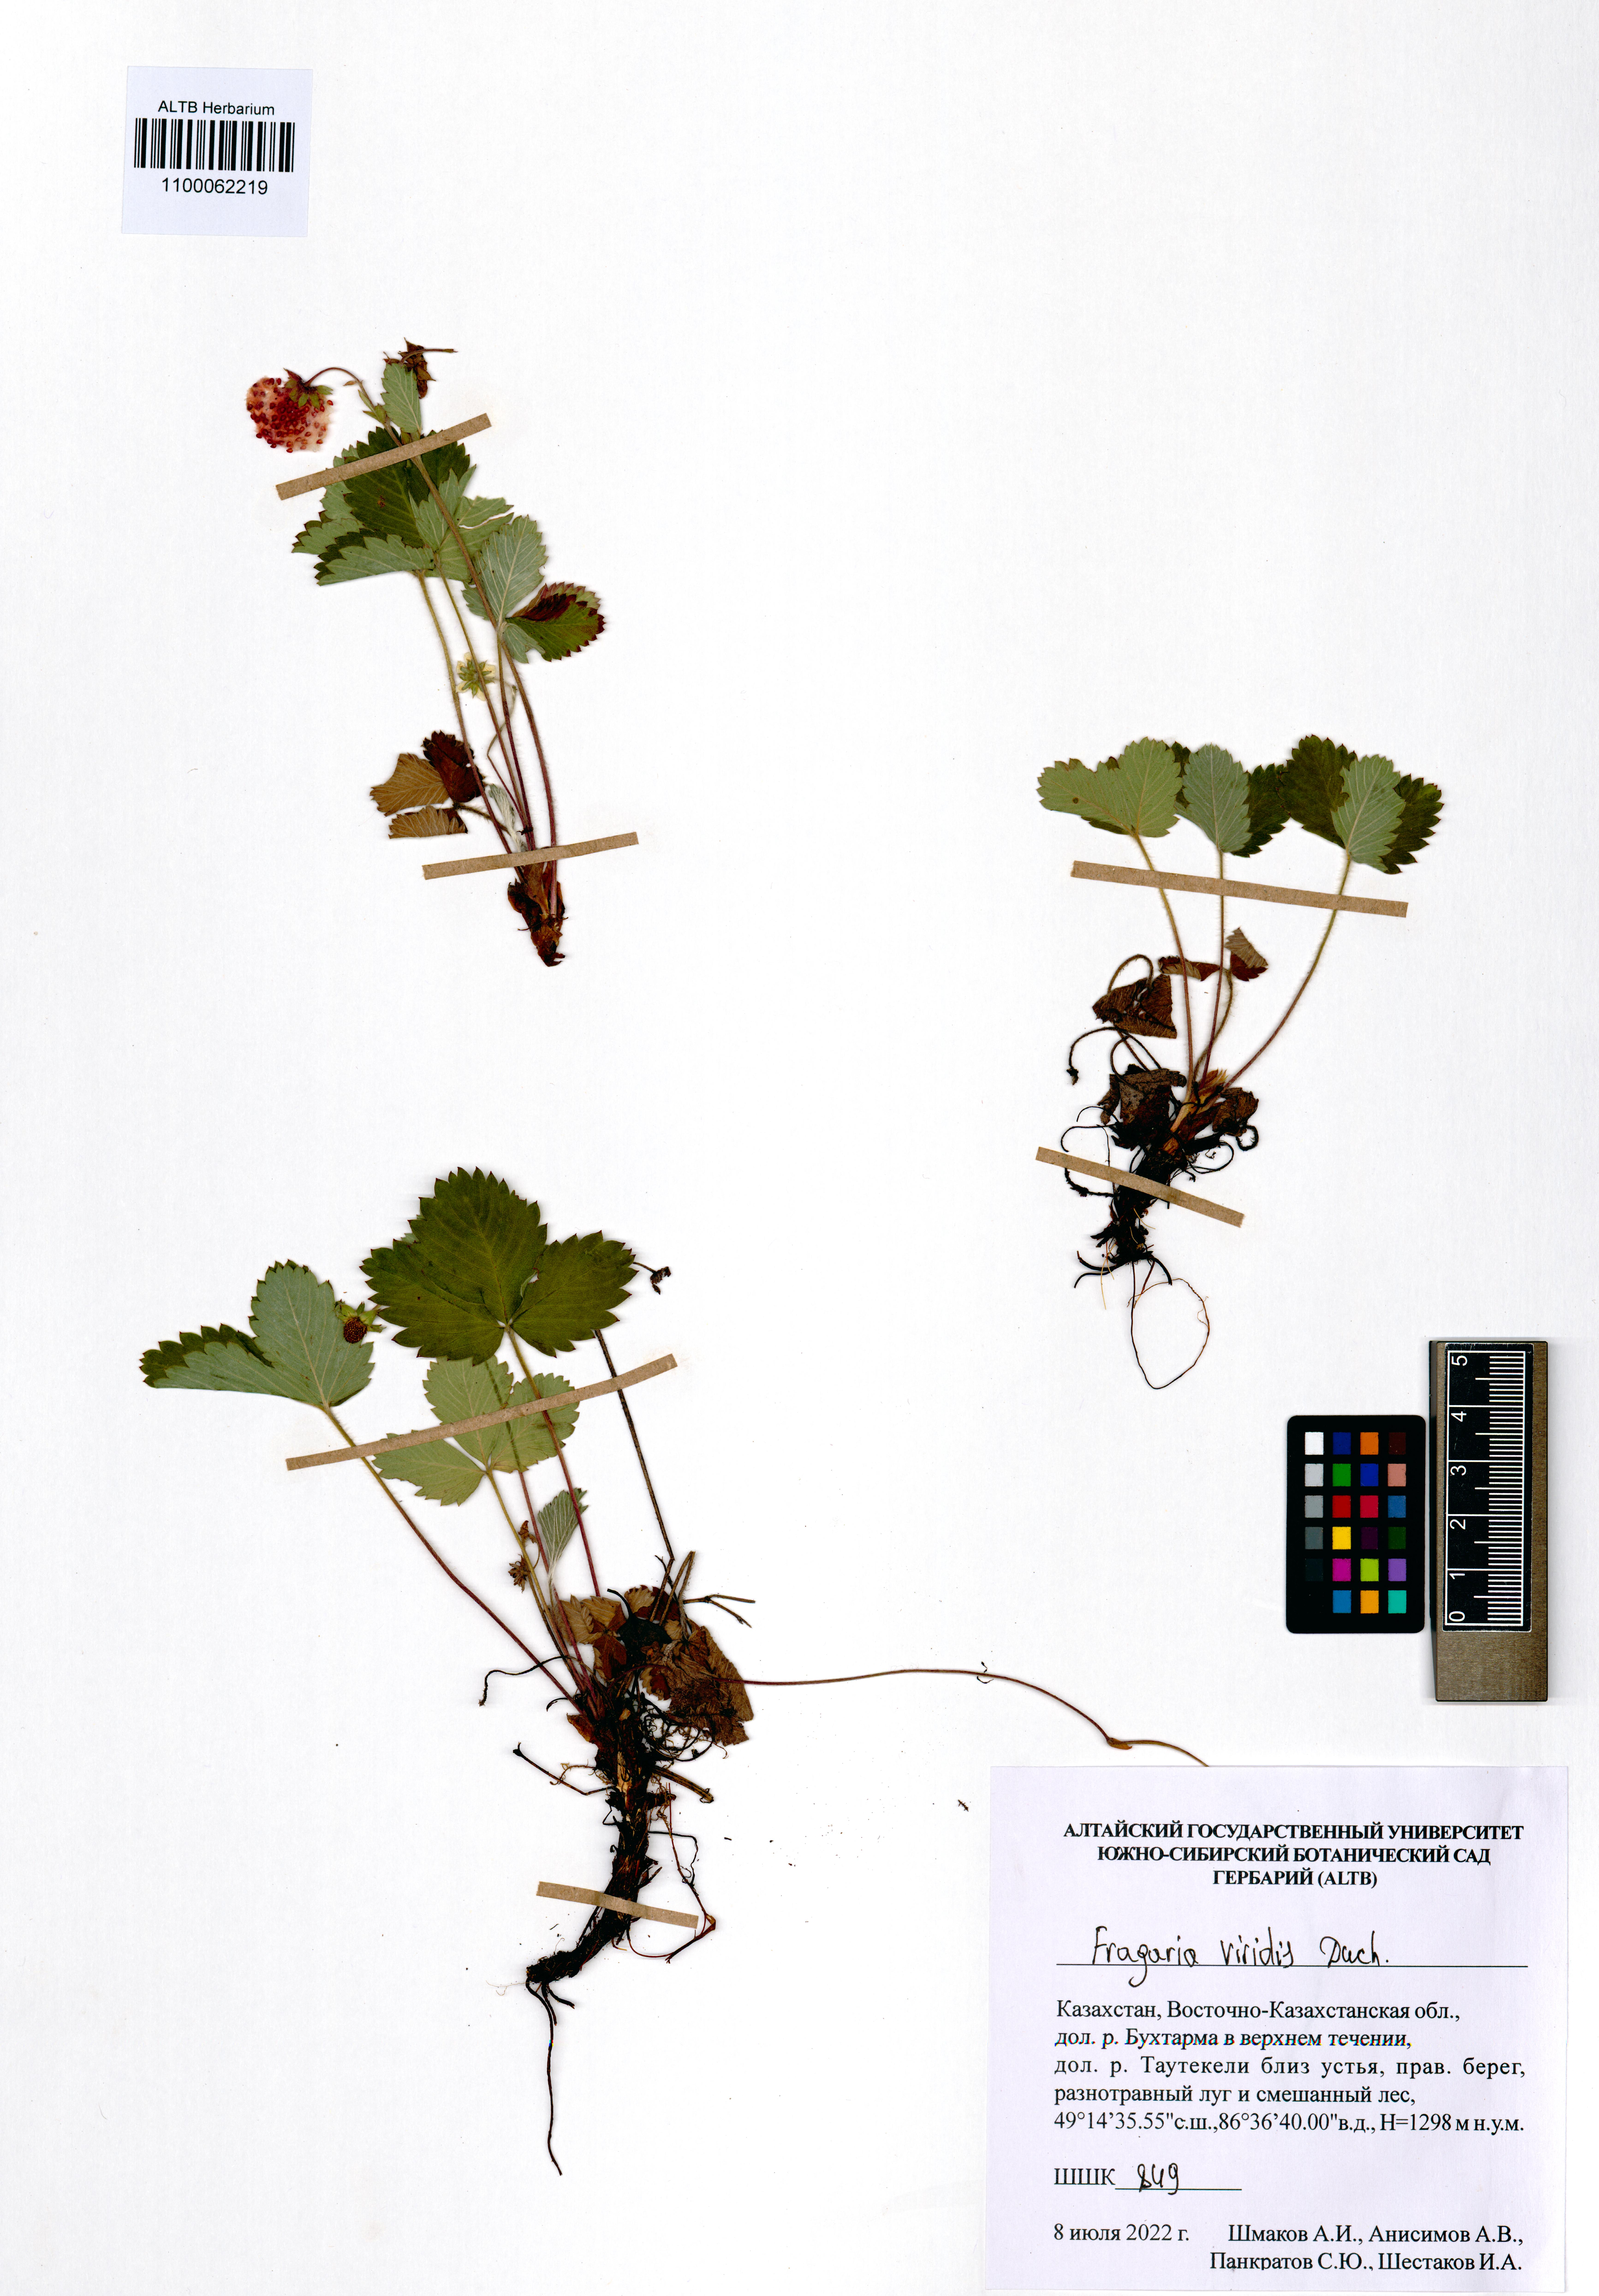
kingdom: Plantae
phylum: Tracheophyta
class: Magnoliopsida
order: Rosales
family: Rosaceae
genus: Fragaria
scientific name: Fragaria viridis
